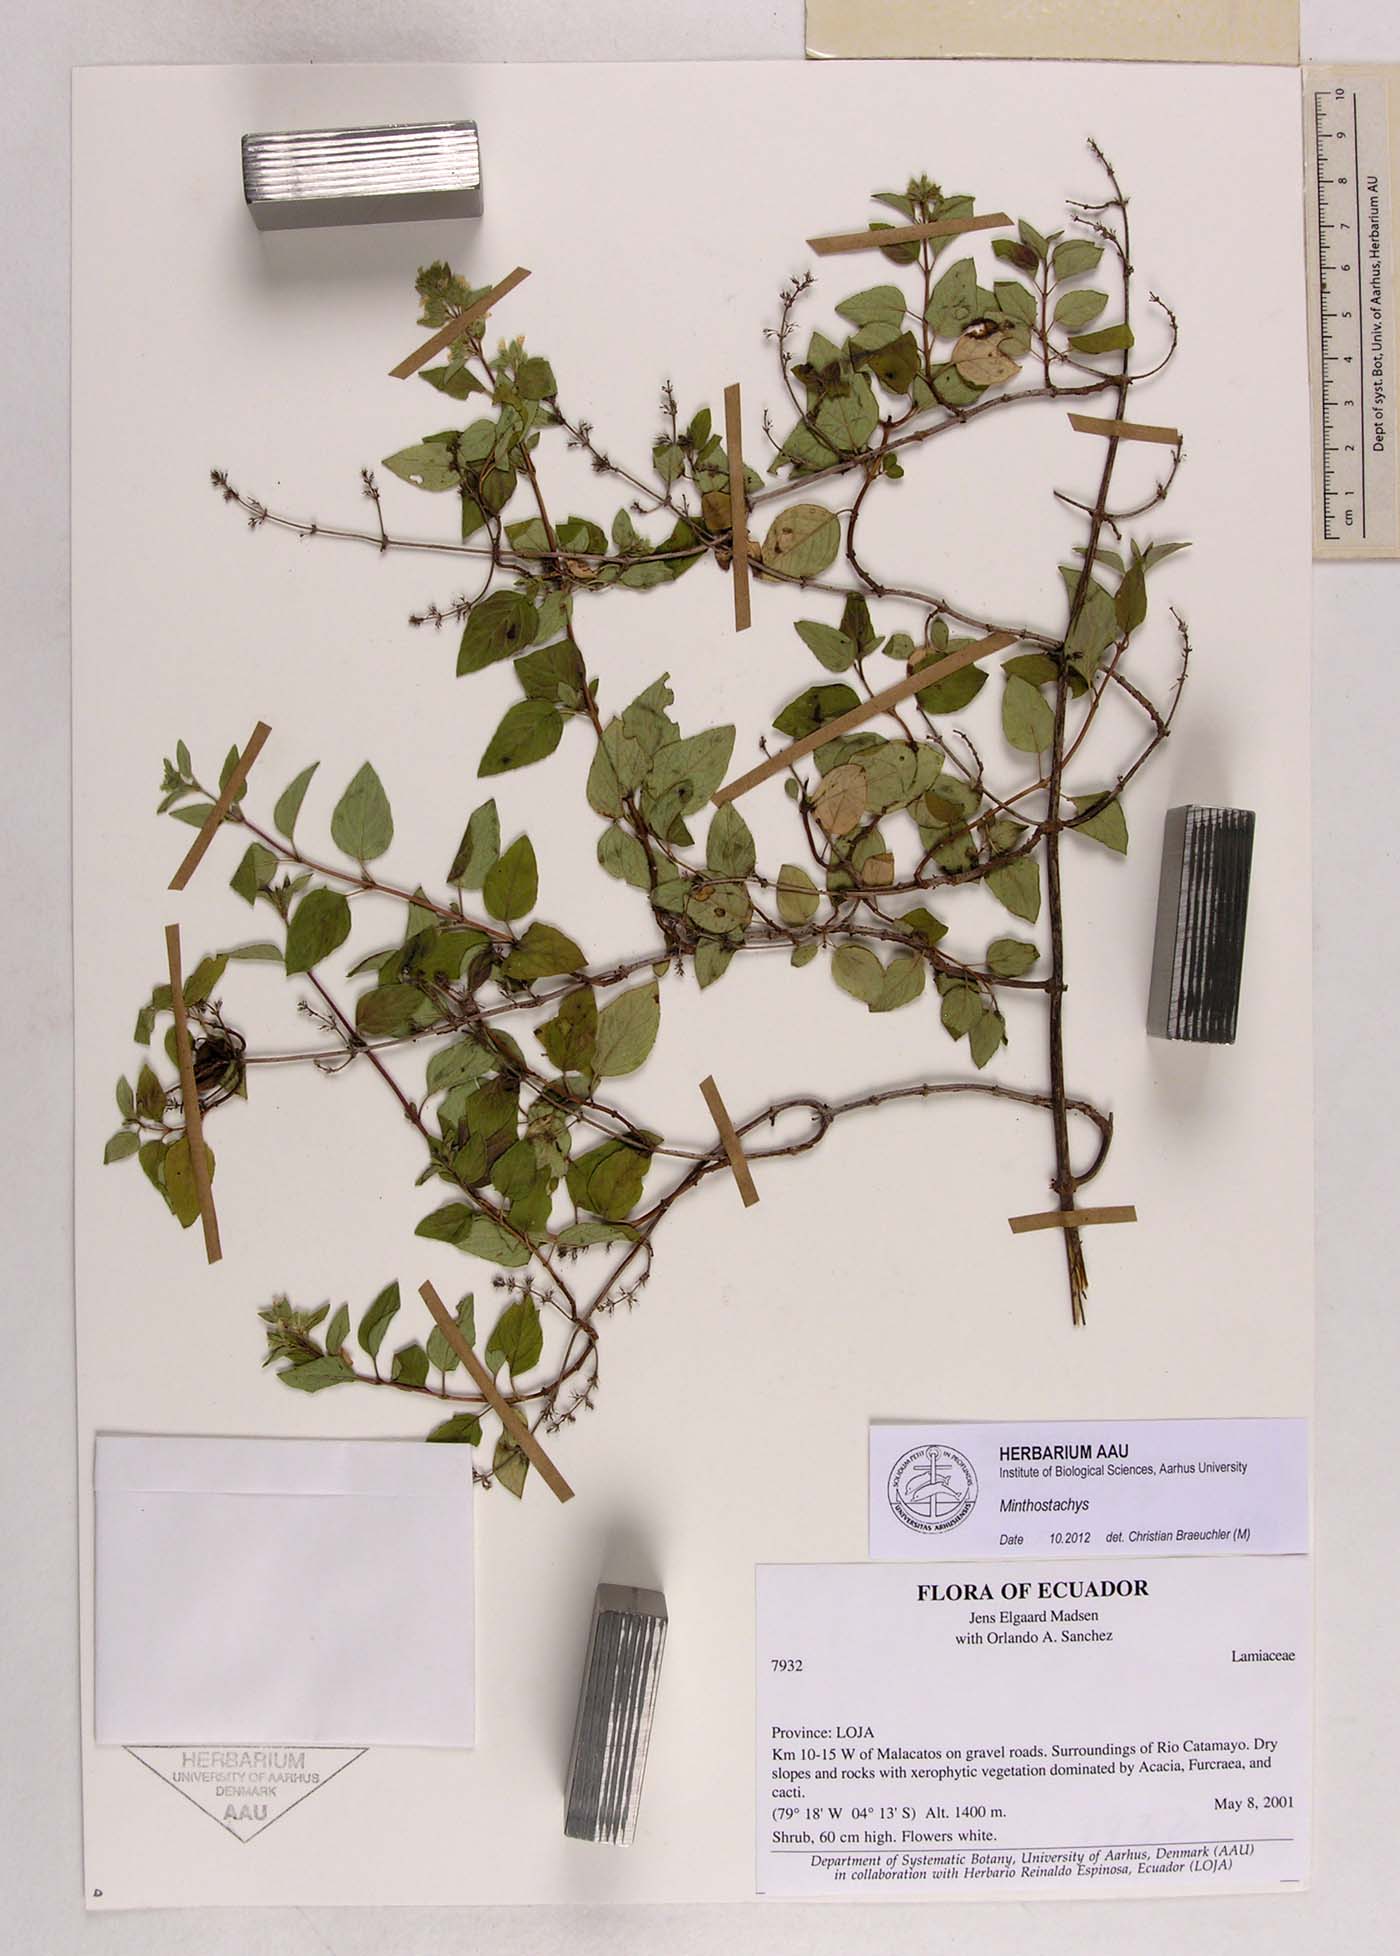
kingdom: Plantae
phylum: Tracheophyta
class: Magnoliopsida
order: Lamiales
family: Lamiaceae
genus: Minthostachys
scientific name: Minthostachys
